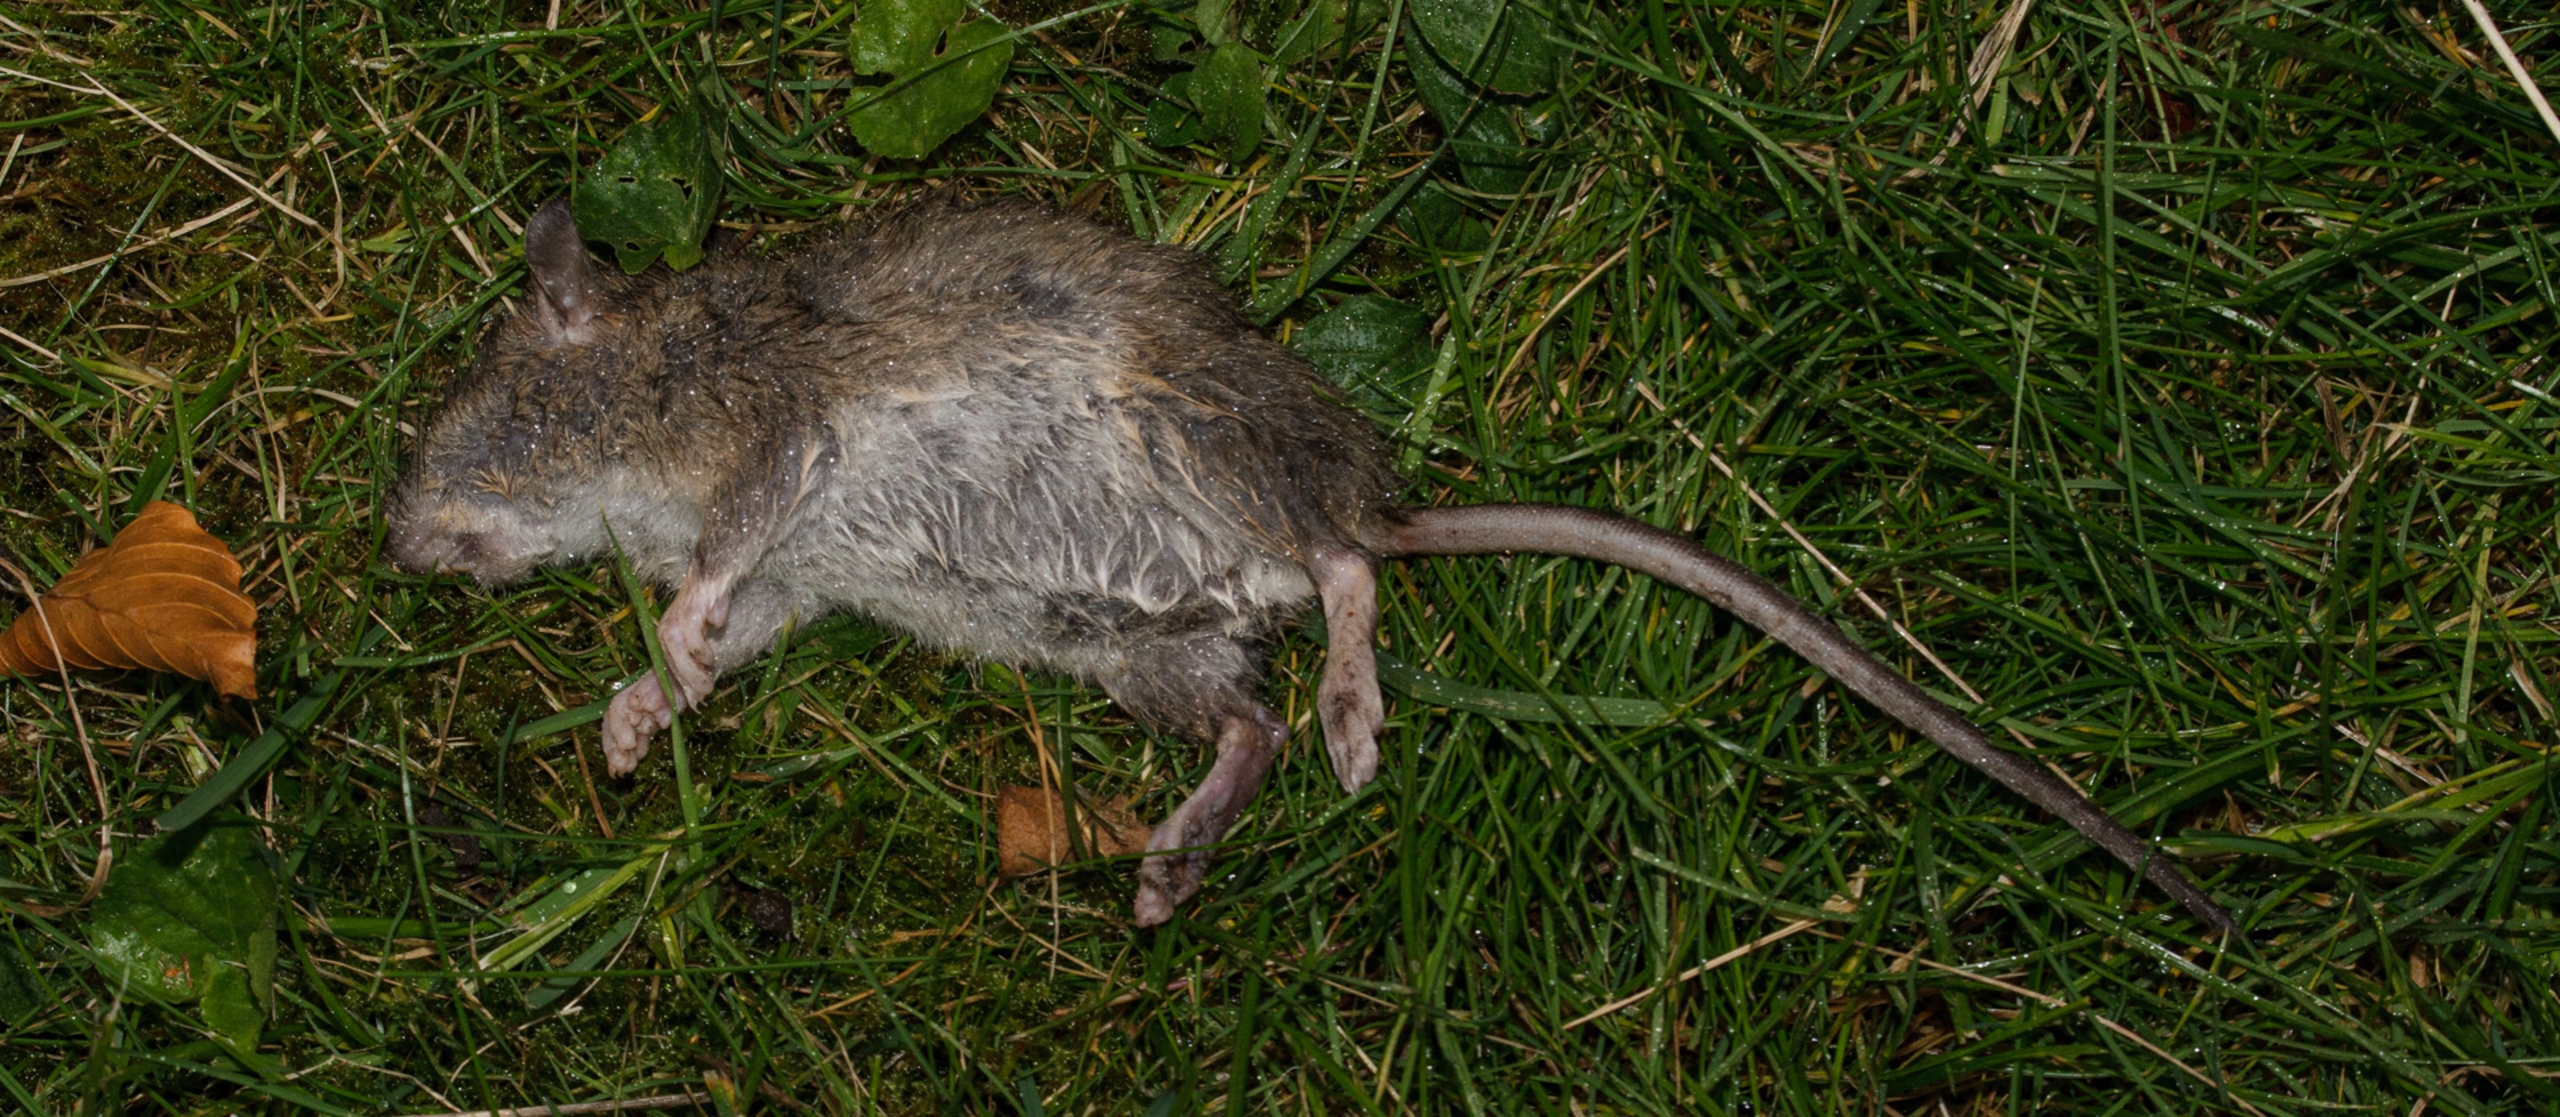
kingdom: Animalia
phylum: Chordata
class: Mammalia
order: Rodentia
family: Muridae
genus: Rattus
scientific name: Rattus norvegicus
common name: Brun rotte
